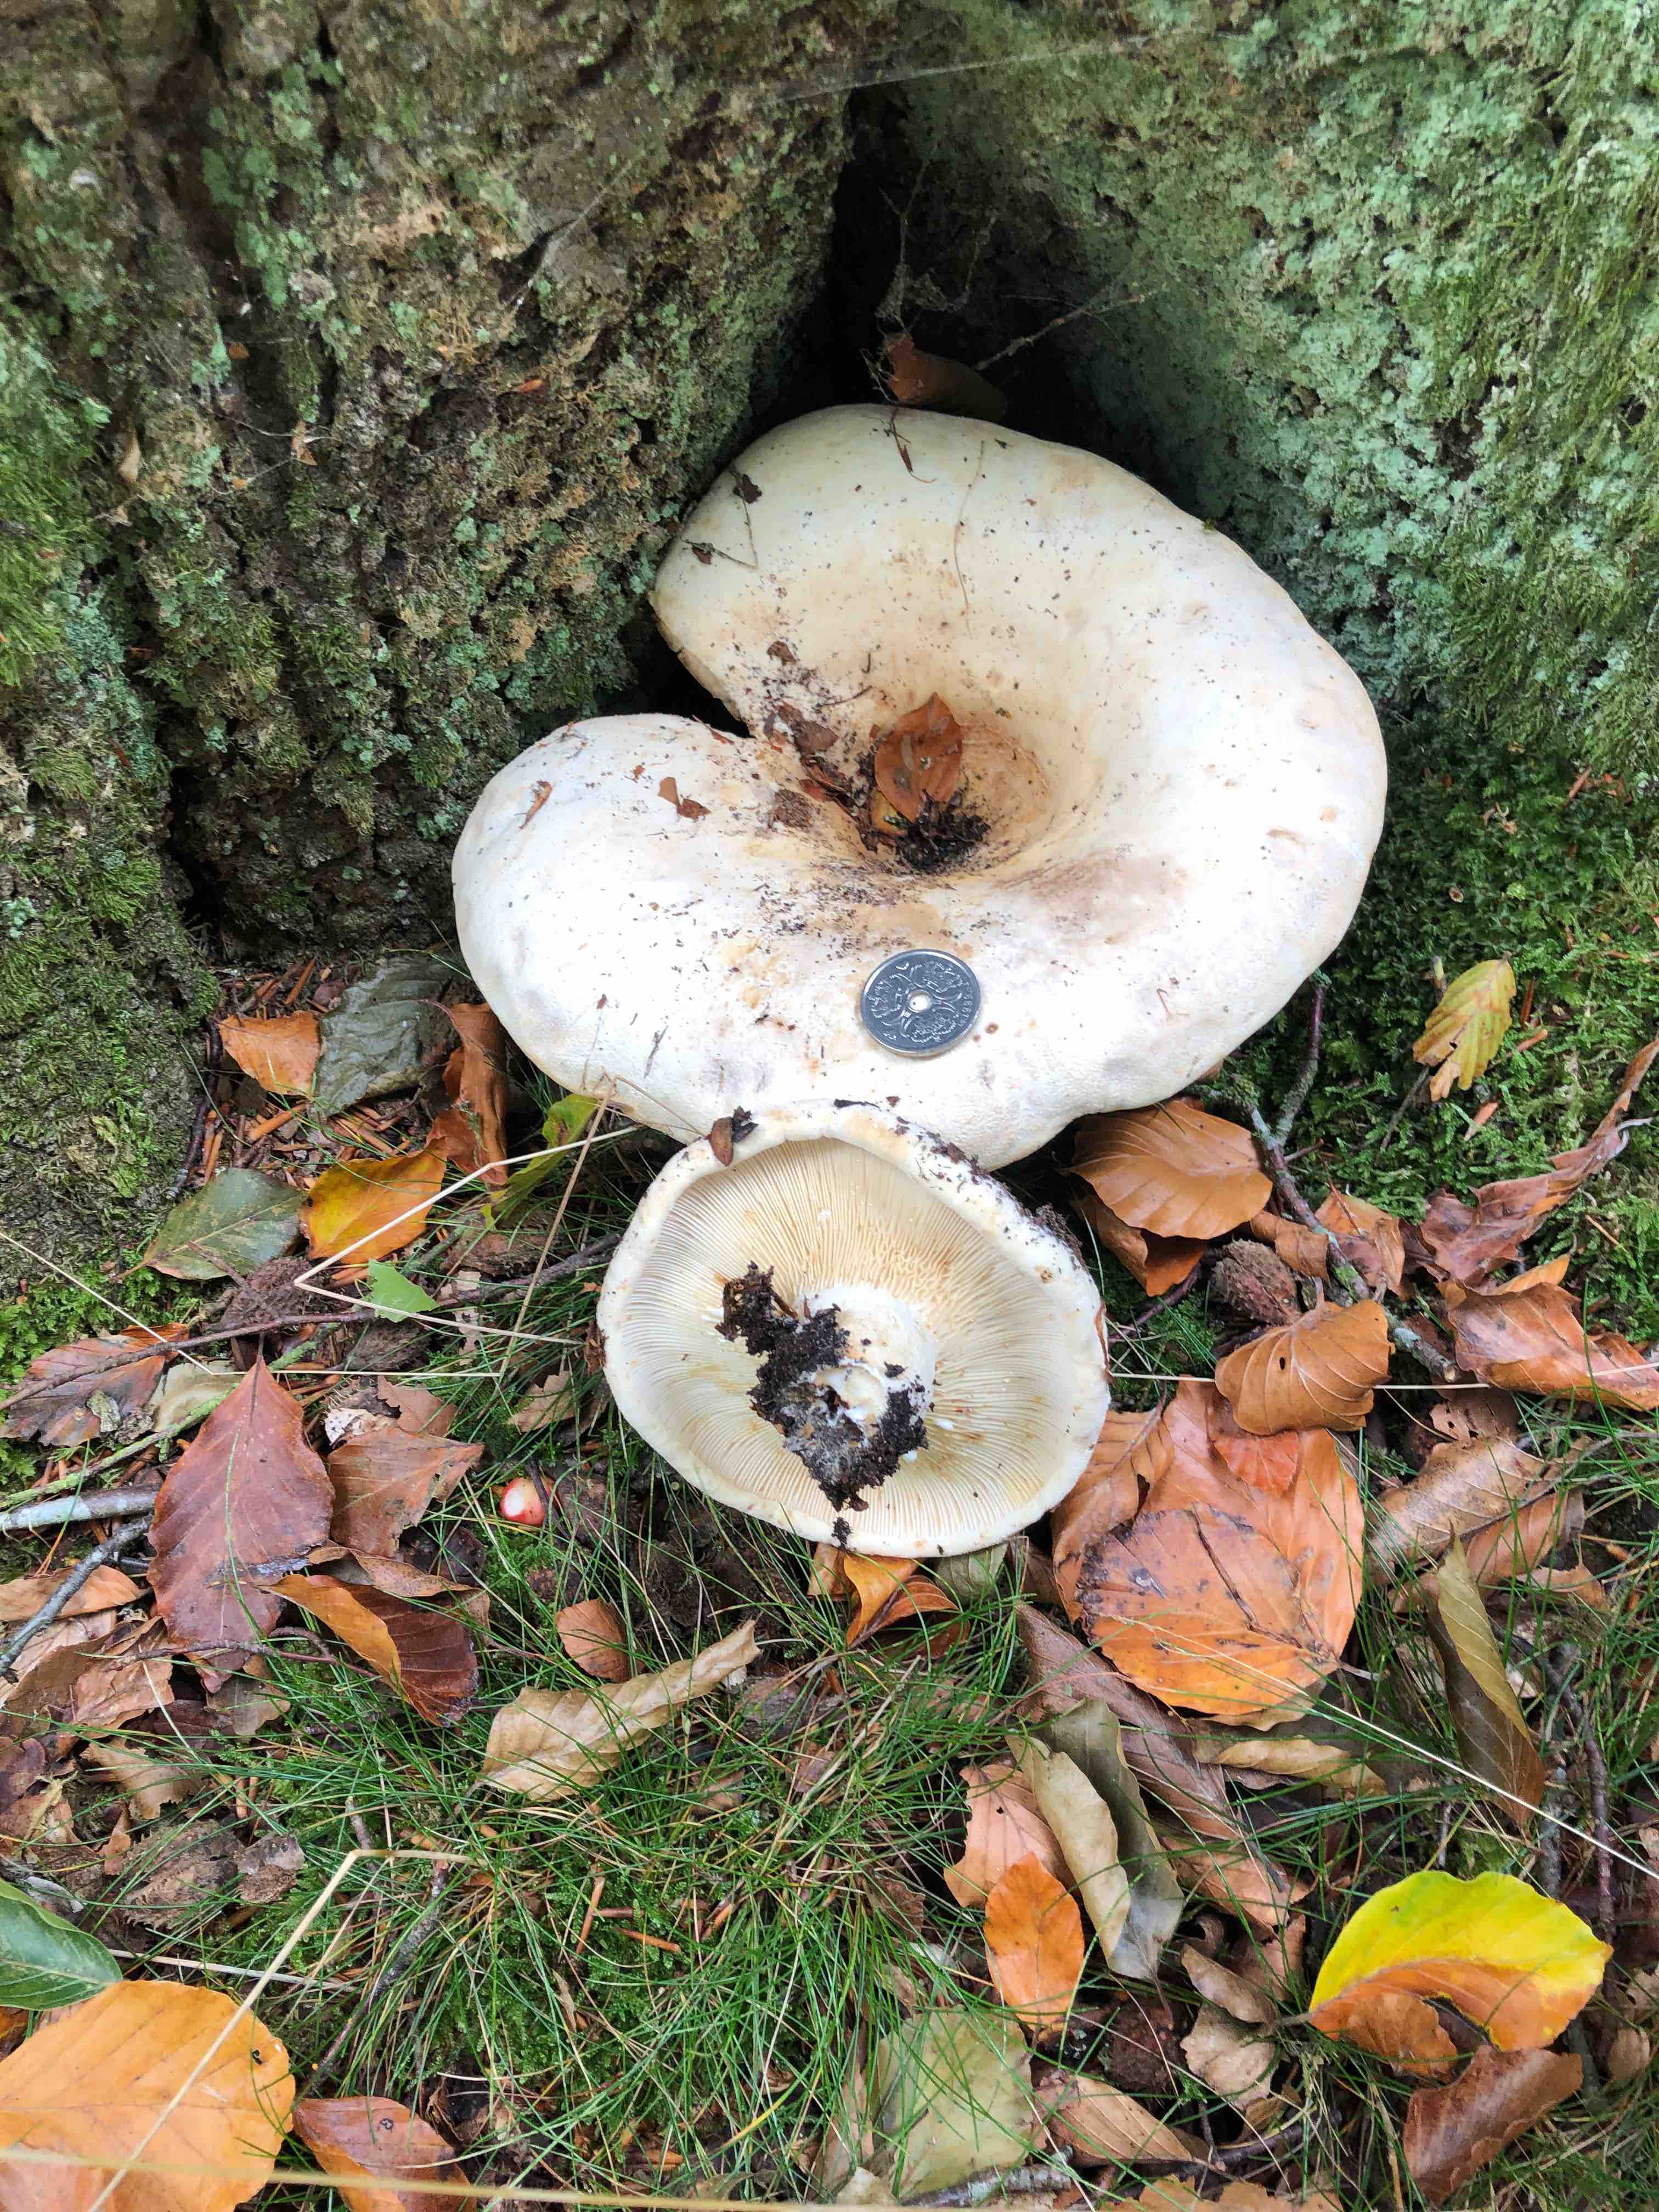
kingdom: Fungi
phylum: Basidiomycota
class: Agaricomycetes
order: Russulales
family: Russulaceae
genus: Lactifluus
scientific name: Lactifluus
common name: mælkehat
